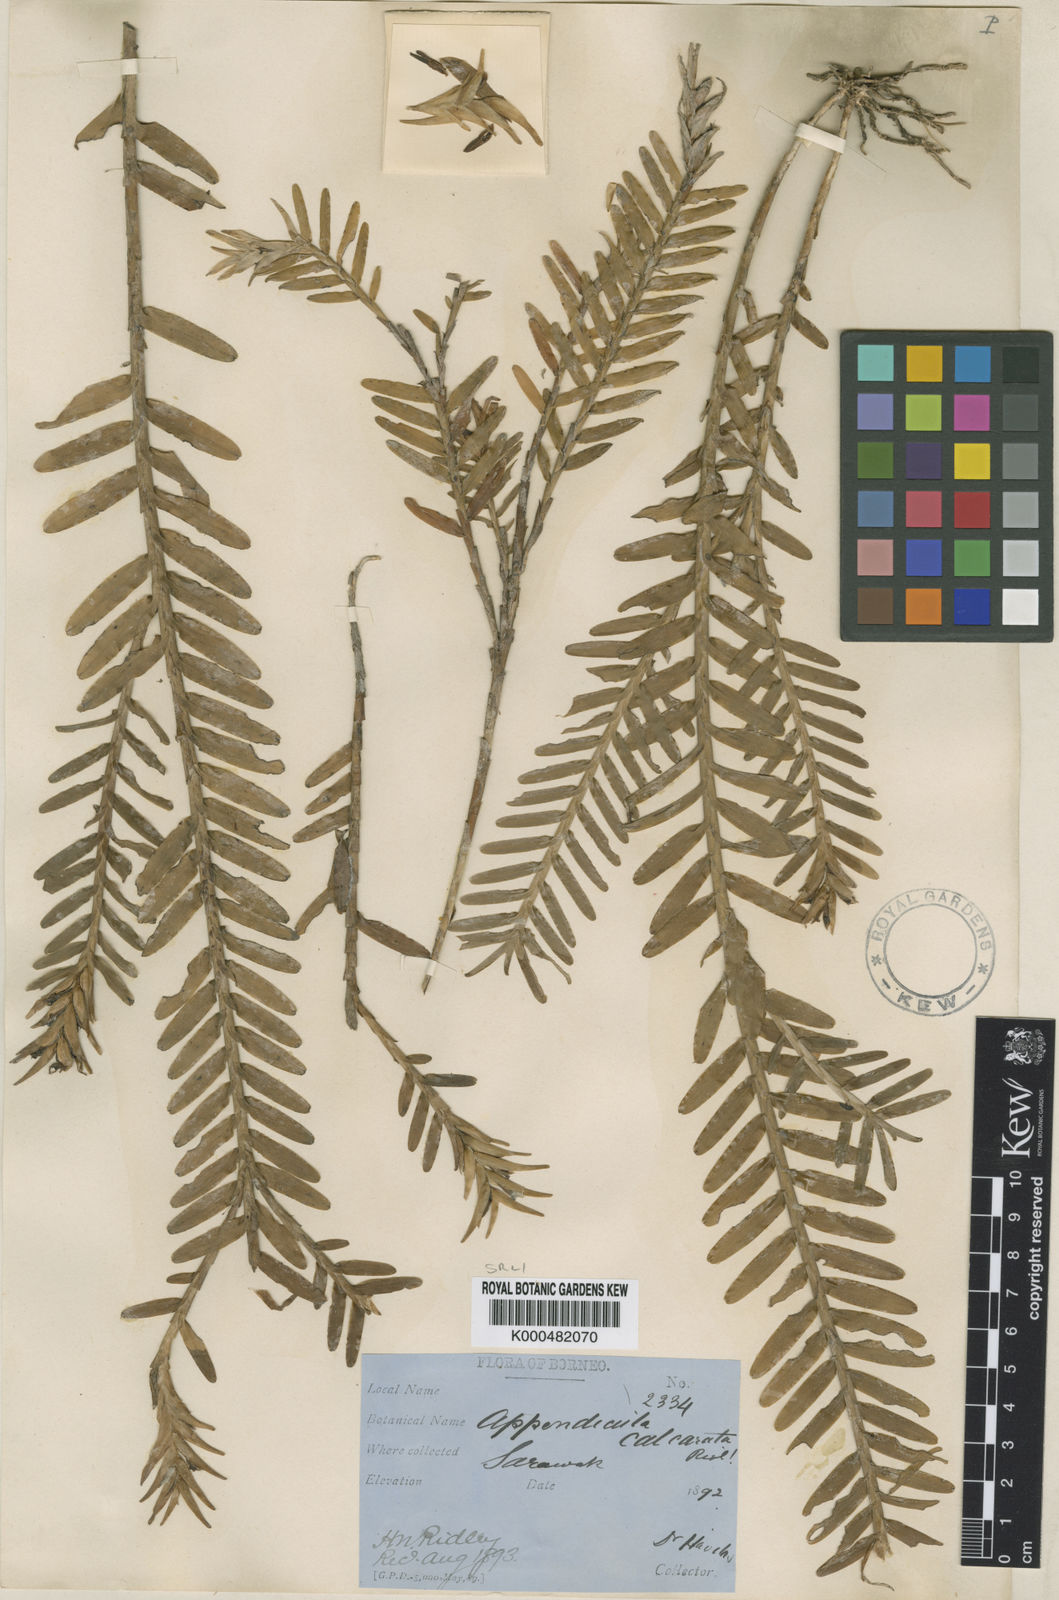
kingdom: Plantae
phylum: Tracheophyta
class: Liliopsida
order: Asparagales
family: Orchidaceae
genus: Appendicula
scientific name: Appendicula calcarata
